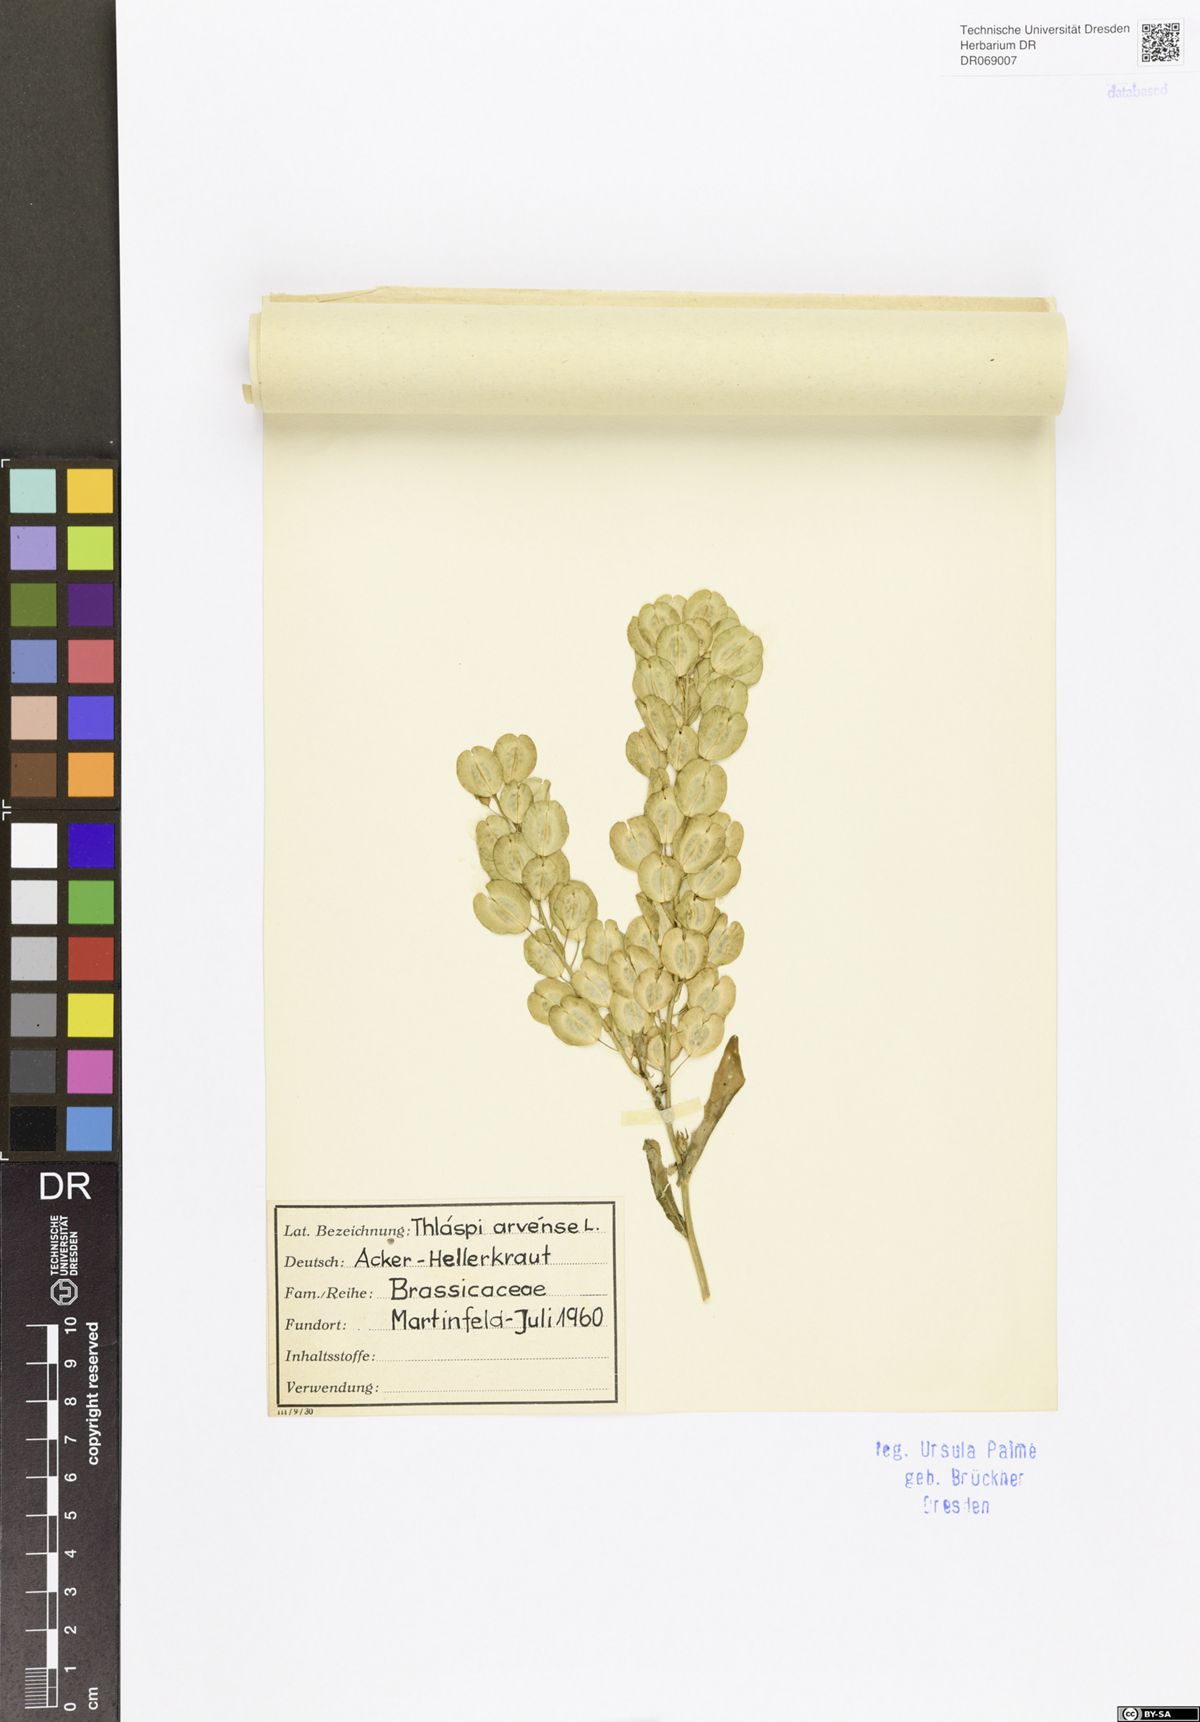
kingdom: Plantae
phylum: Tracheophyta
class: Magnoliopsida
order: Brassicales
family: Brassicaceae
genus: Thlaspi
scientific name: Thlaspi arvense
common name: Field pennycress
